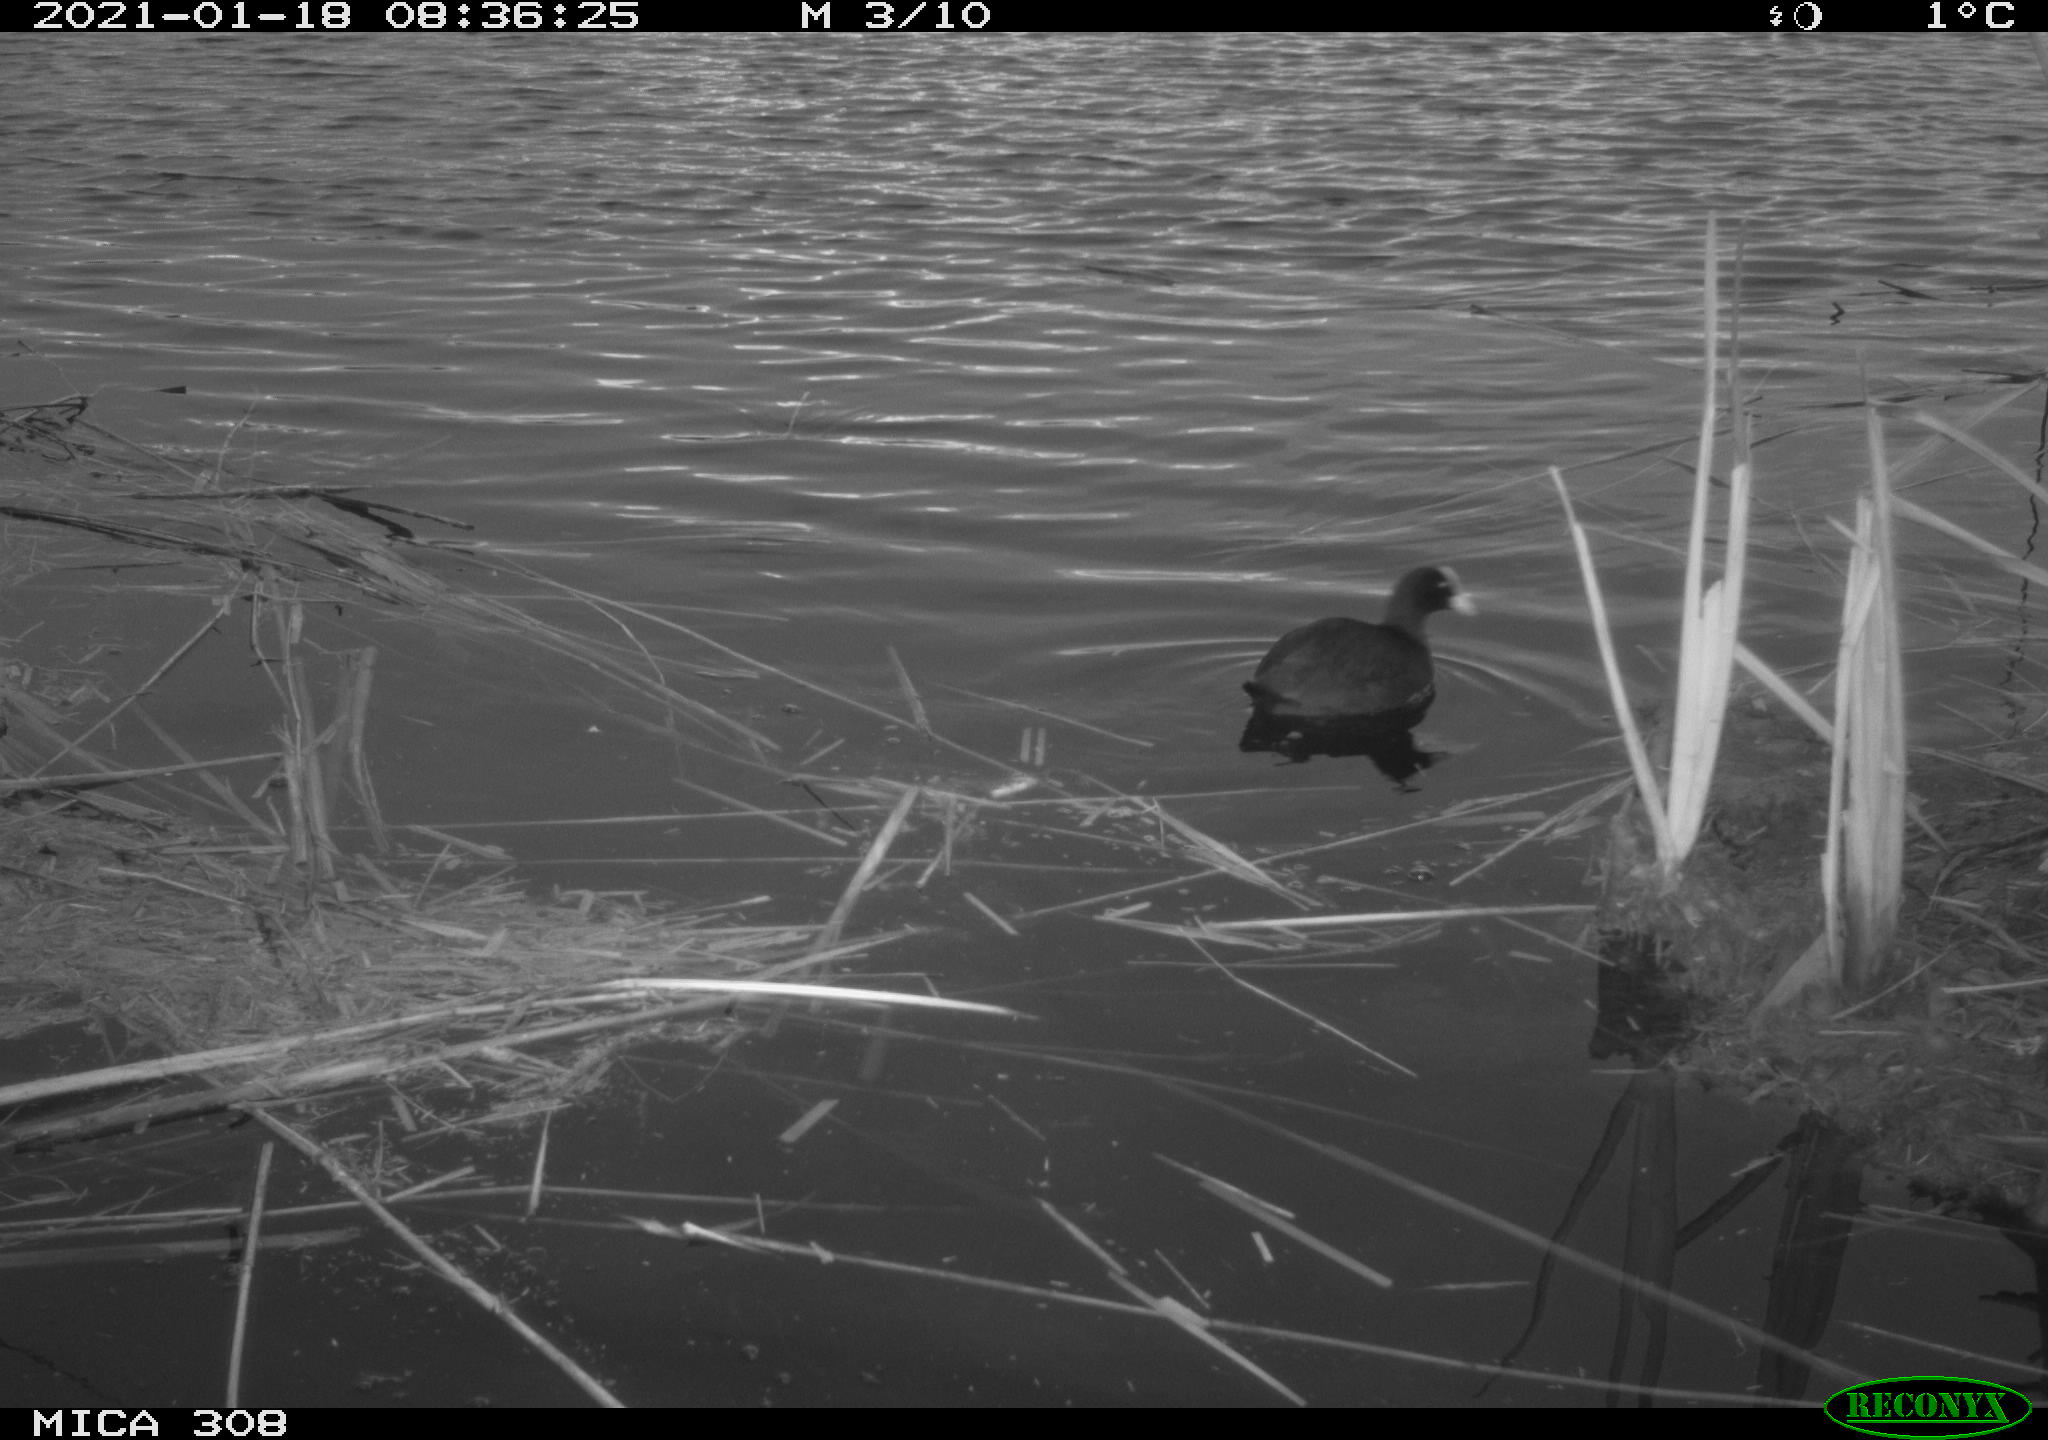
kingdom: Animalia
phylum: Chordata
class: Aves
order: Gruiformes
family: Rallidae
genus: Fulica
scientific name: Fulica atra
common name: Eurasian coot
